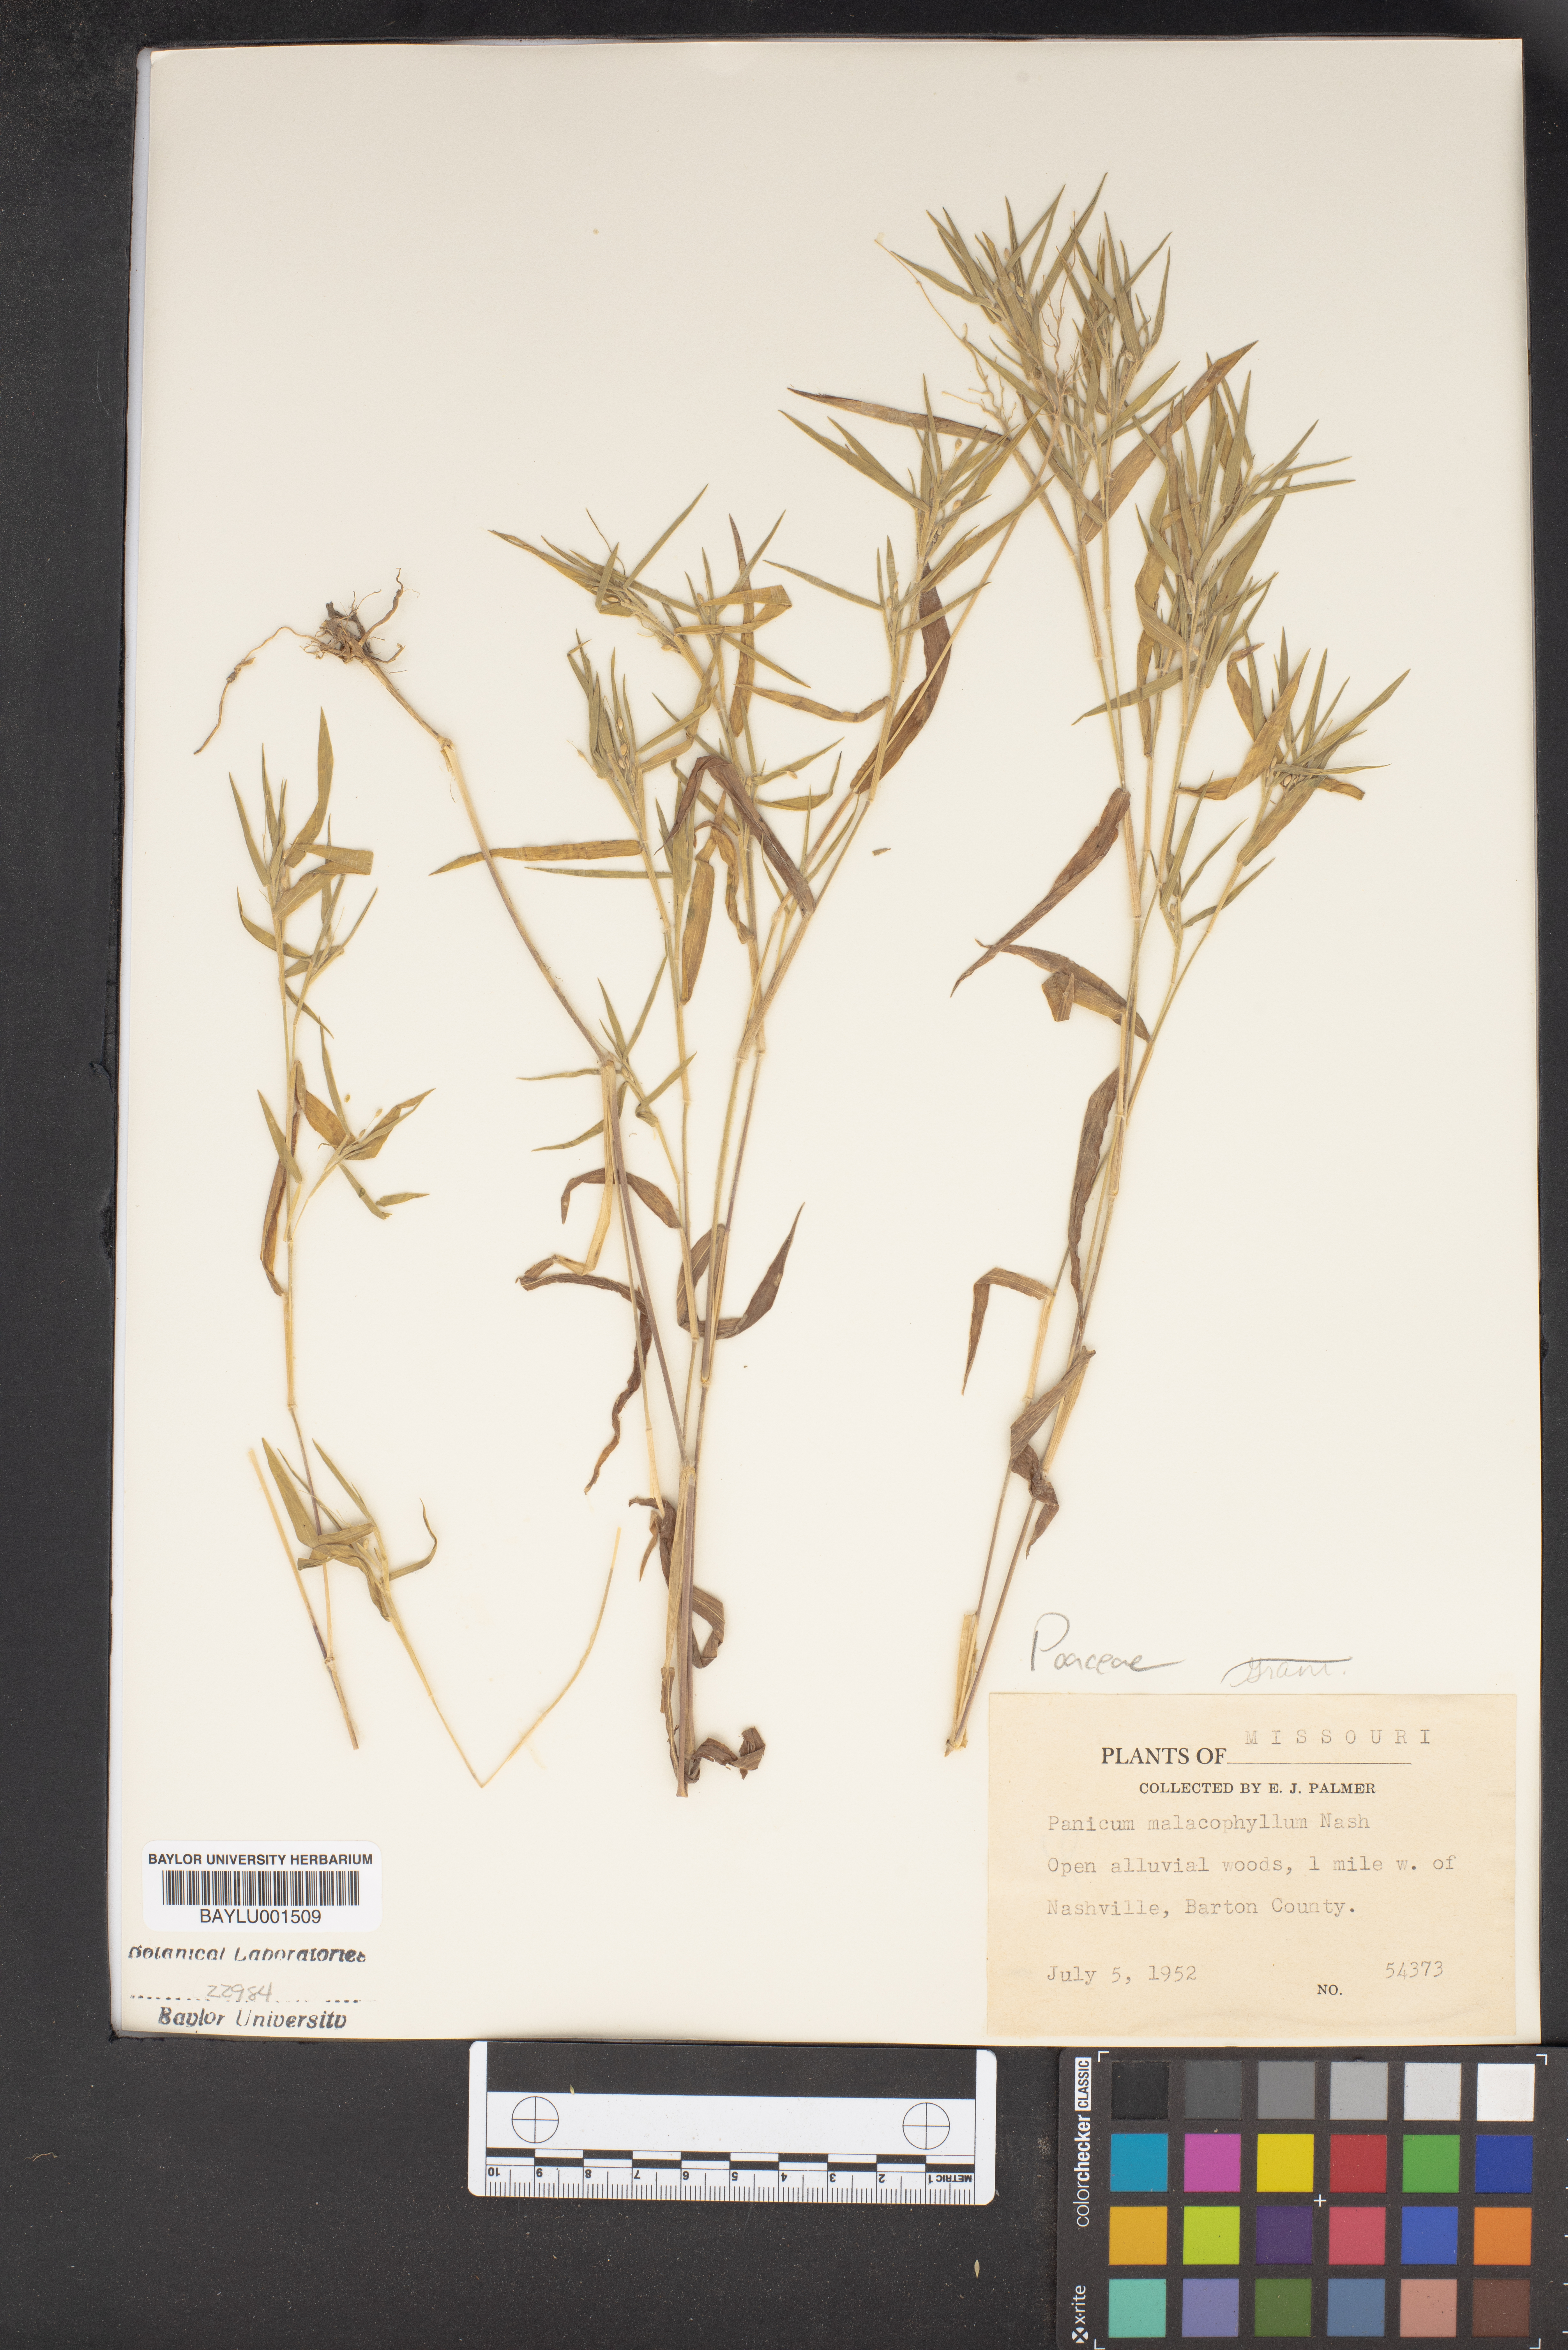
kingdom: Plantae
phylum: Tracheophyta
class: Liliopsida
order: Poales
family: Poaceae
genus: Dichanthelium
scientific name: Dichanthelium malacophyllum
